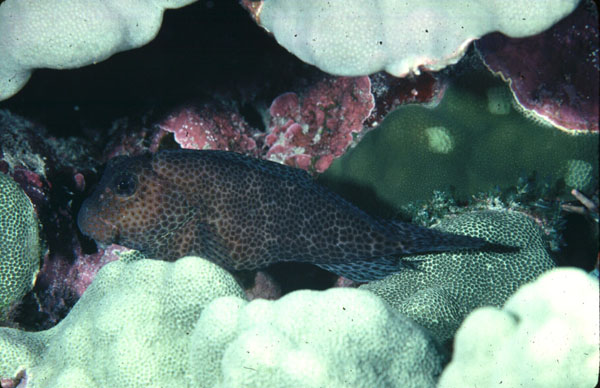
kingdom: Animalia
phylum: Chordata
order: Perciformes
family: Blenniidae
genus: Exallias
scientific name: Exallias brevis
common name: Leopard blenny
